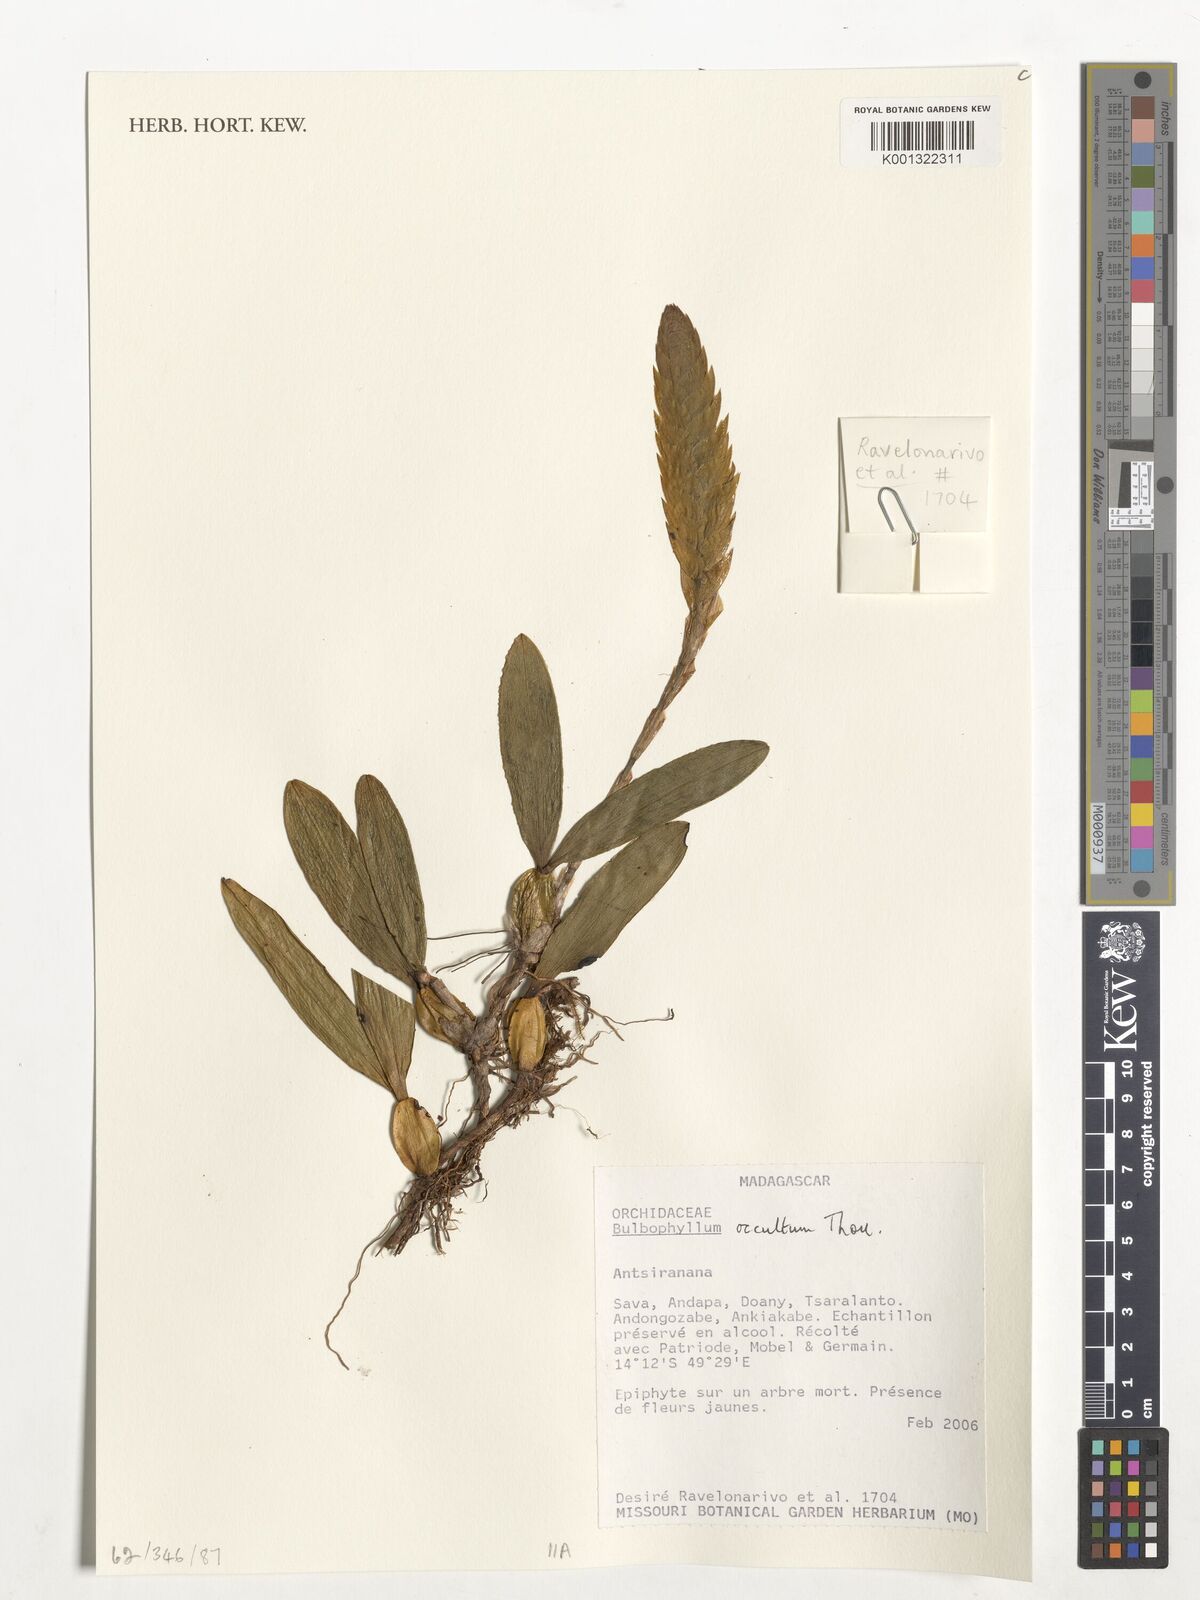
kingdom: Plantae
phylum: Tracheophyta
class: Liliopsida
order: Asparagales
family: Orchidaceae
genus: Bulbophyllum
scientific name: Bulbophyllum occultum
